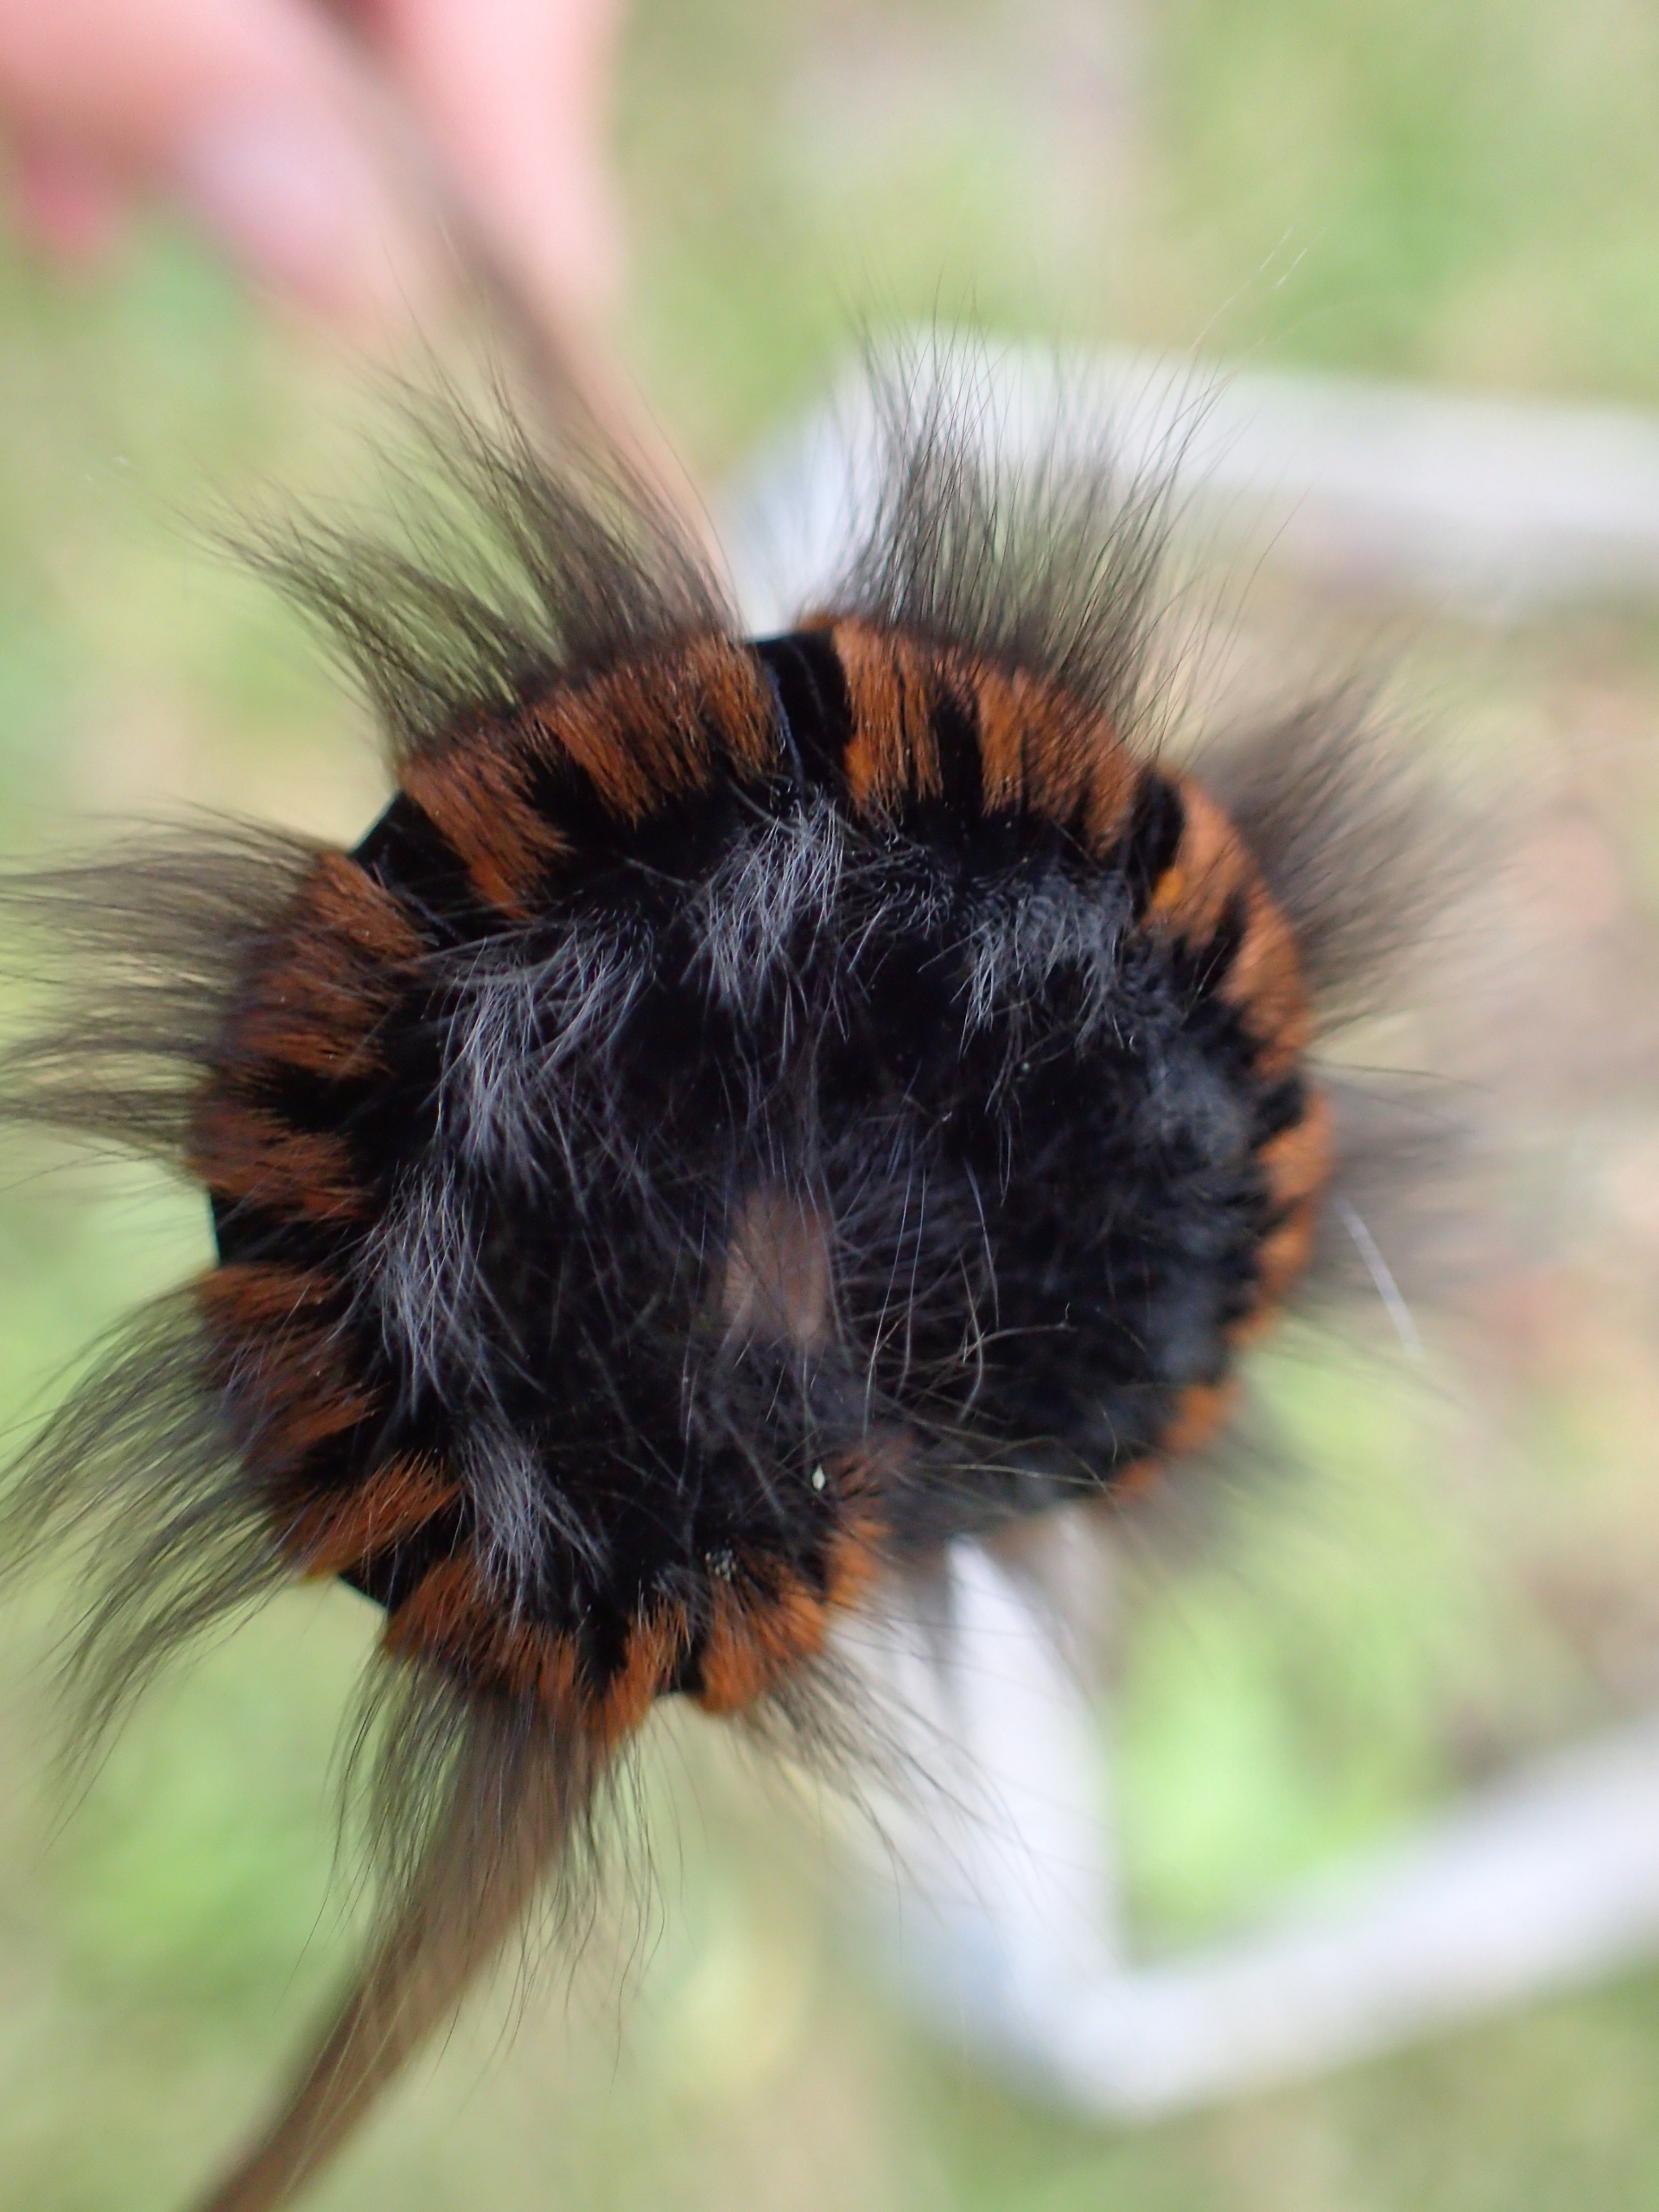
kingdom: Animalia
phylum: Arthropoda
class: Insecta
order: Lepidoptera
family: Lasiocampidae
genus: Macrothylacia
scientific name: Macrothylacia rubi
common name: Brombærspinder
